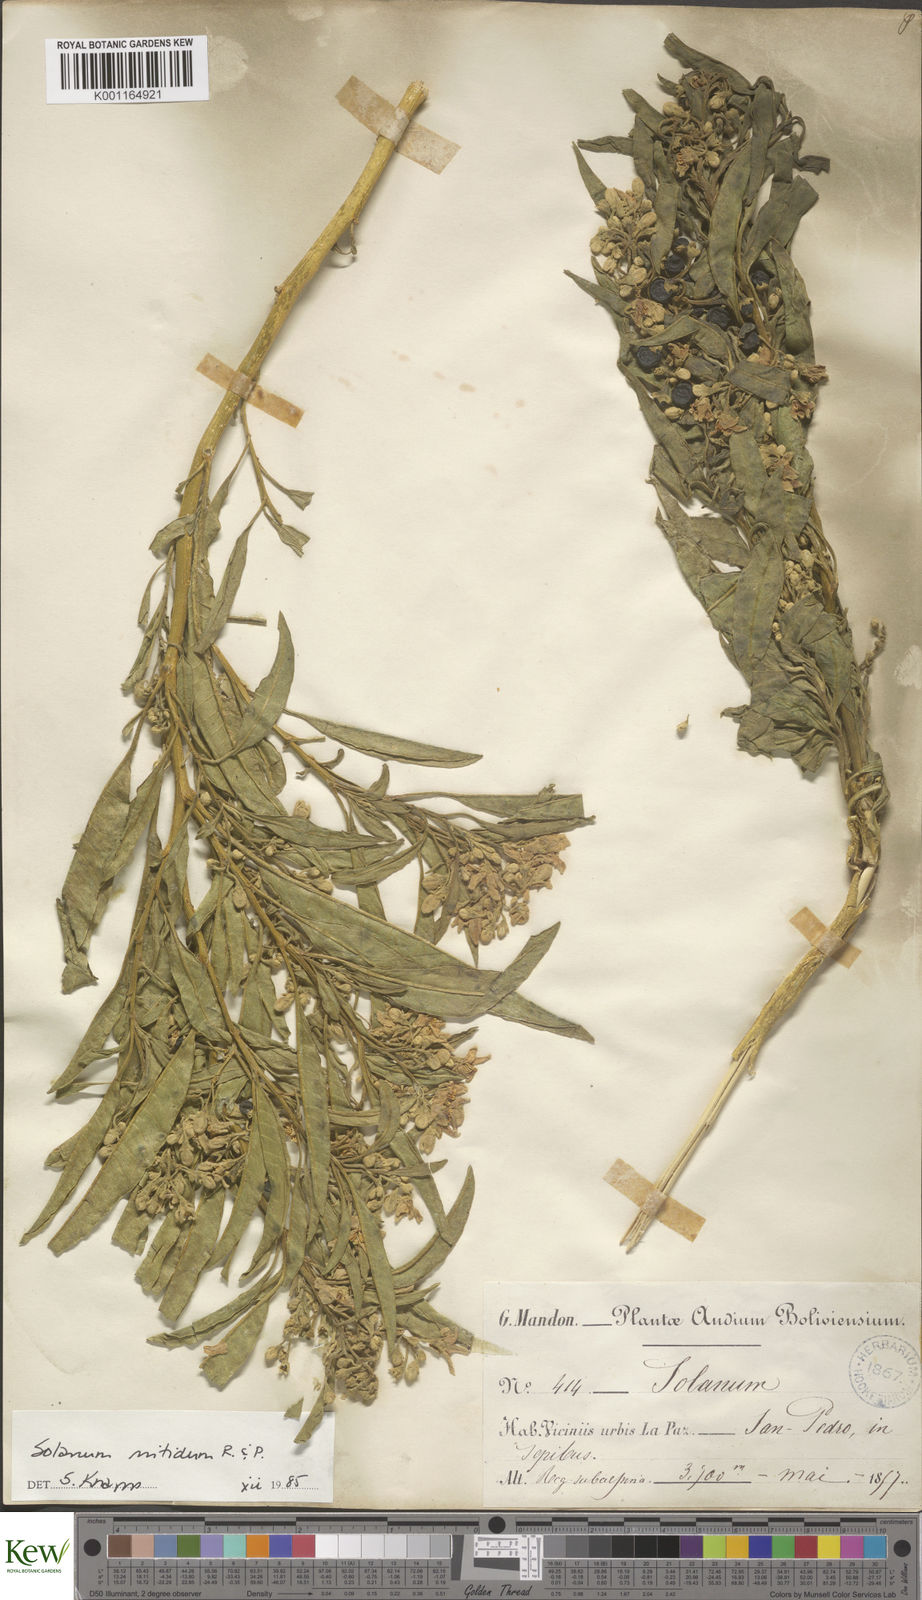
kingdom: Plantae
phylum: Tracheophyta
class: Magnoliopsida
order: Solanales
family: Solanaceae
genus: Solanum
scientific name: Solanum nitidum
